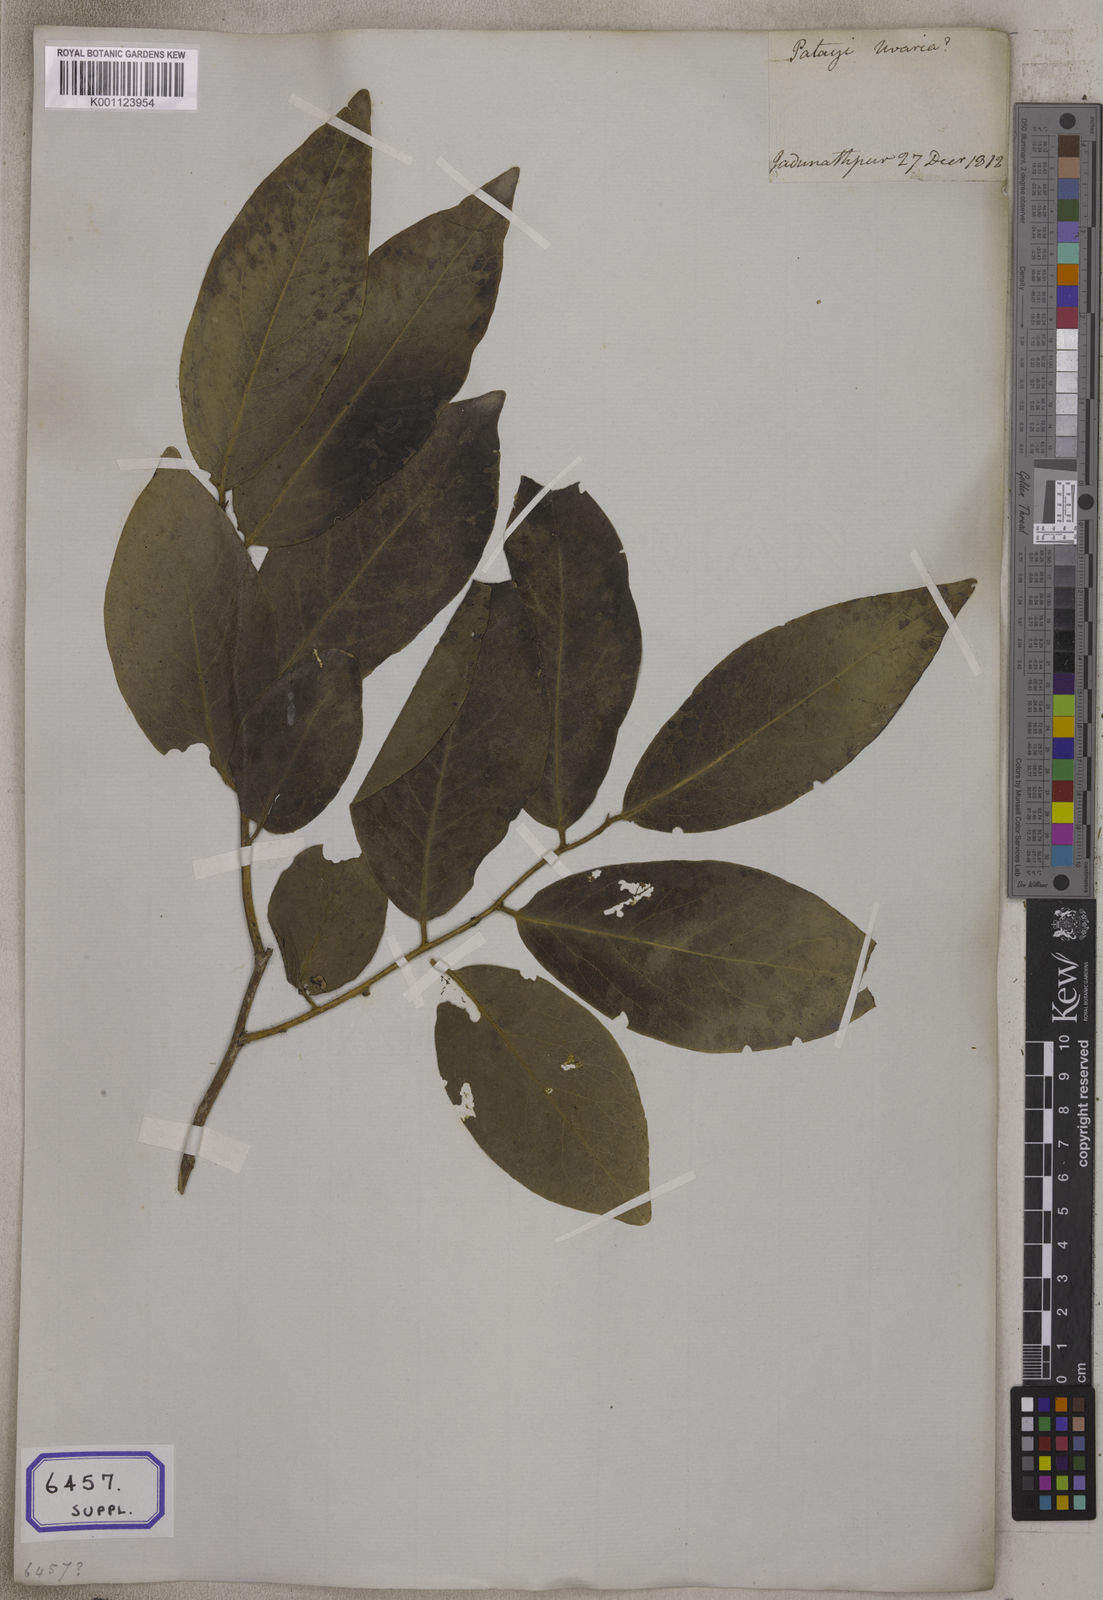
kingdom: Plantae
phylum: Tracheophyta
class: Magnoliopsida
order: Magnoliales
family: Annonaceae
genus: Uvaria
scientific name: Uvaria
